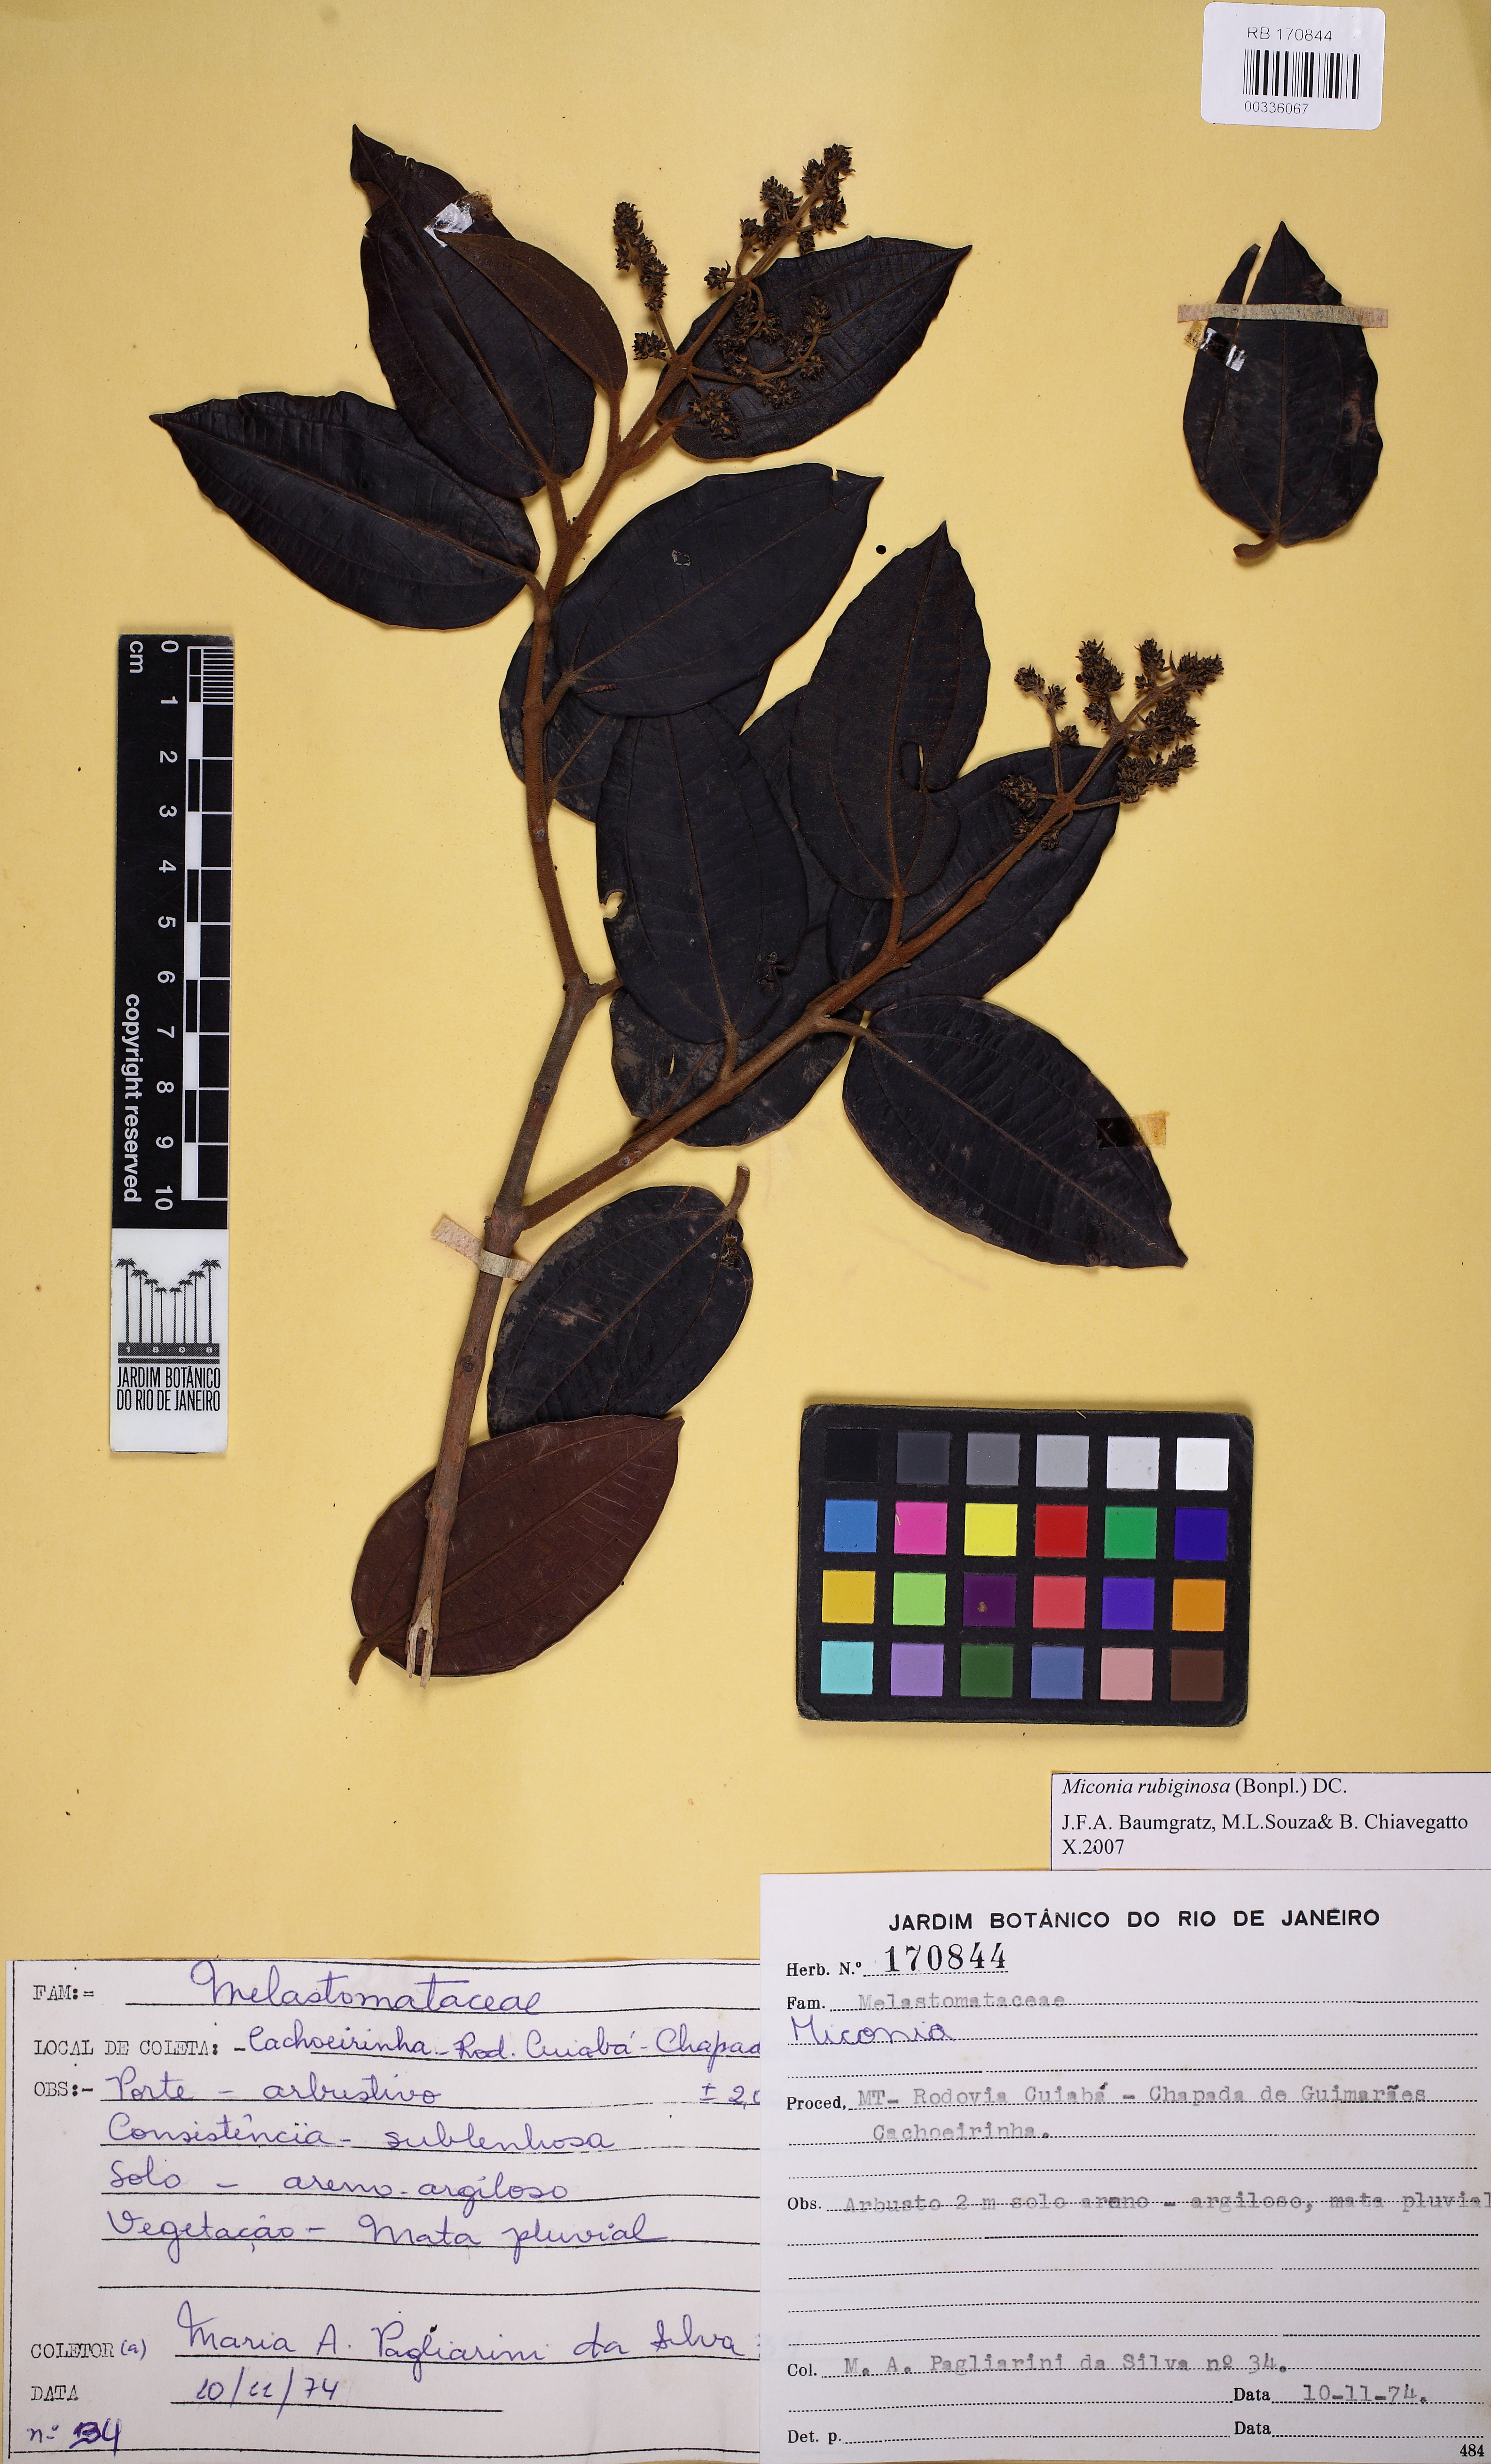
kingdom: Plantae
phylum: Tracheophyta
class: Magnoliopsida
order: Myrtales
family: Melastomataceae
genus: Miconia
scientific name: Miconia rubiginosa
